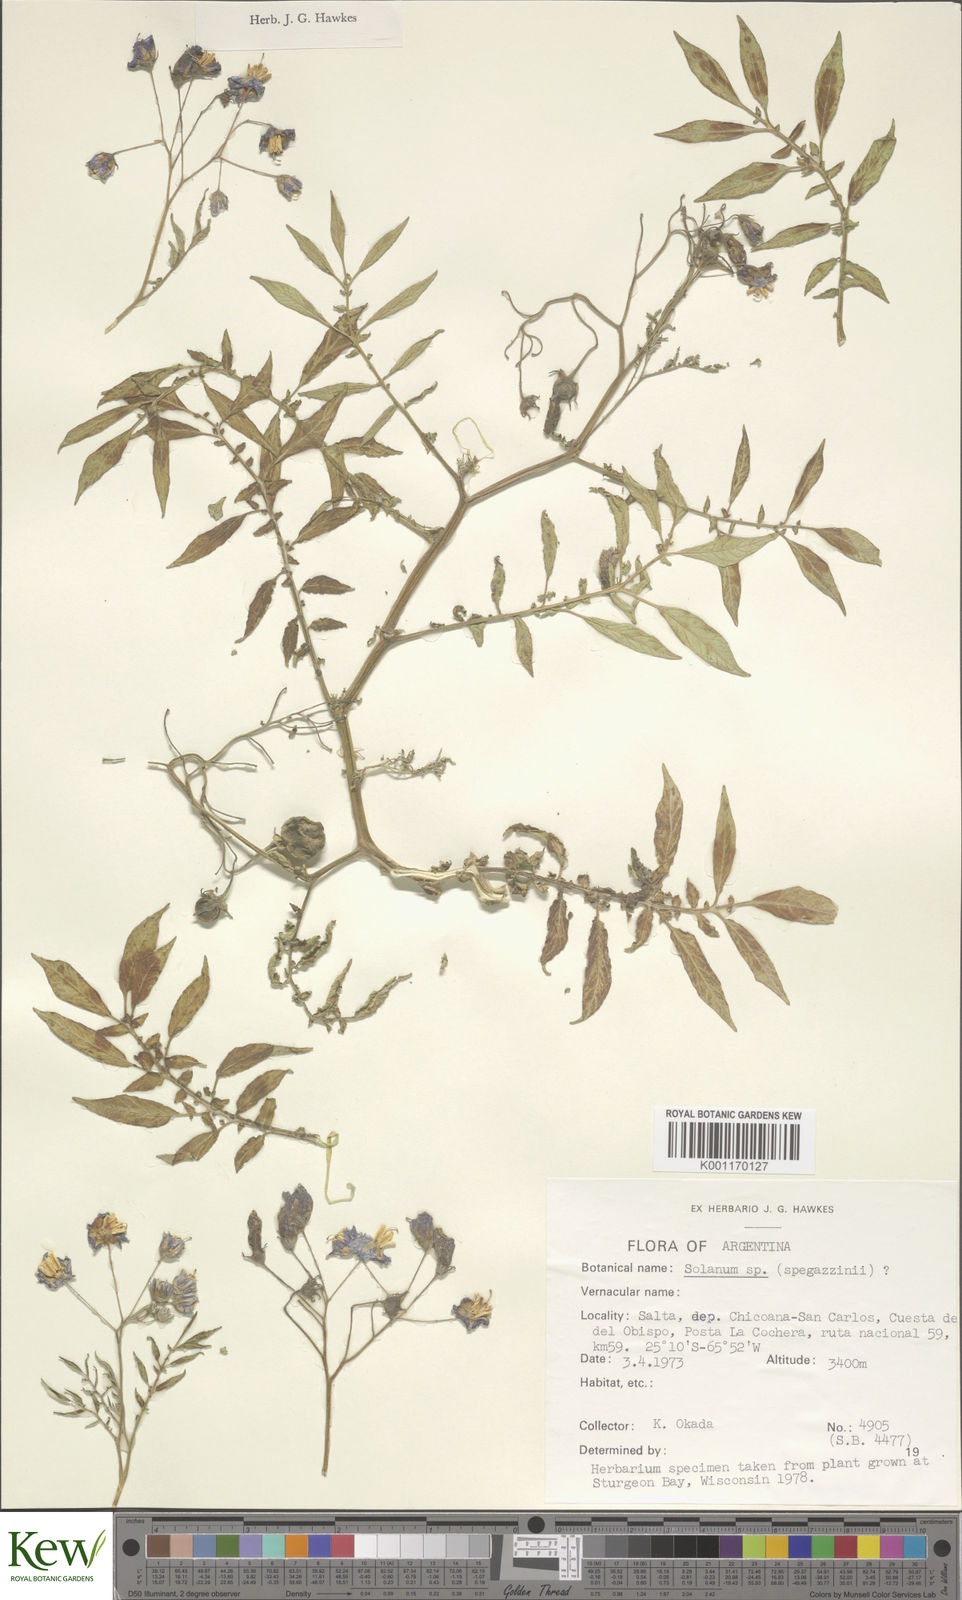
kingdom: Plantae
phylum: Tracheophyta
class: Magnoliopsida
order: Solanales
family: Solanaceae
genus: Solanum
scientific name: Solanum brevicaule
